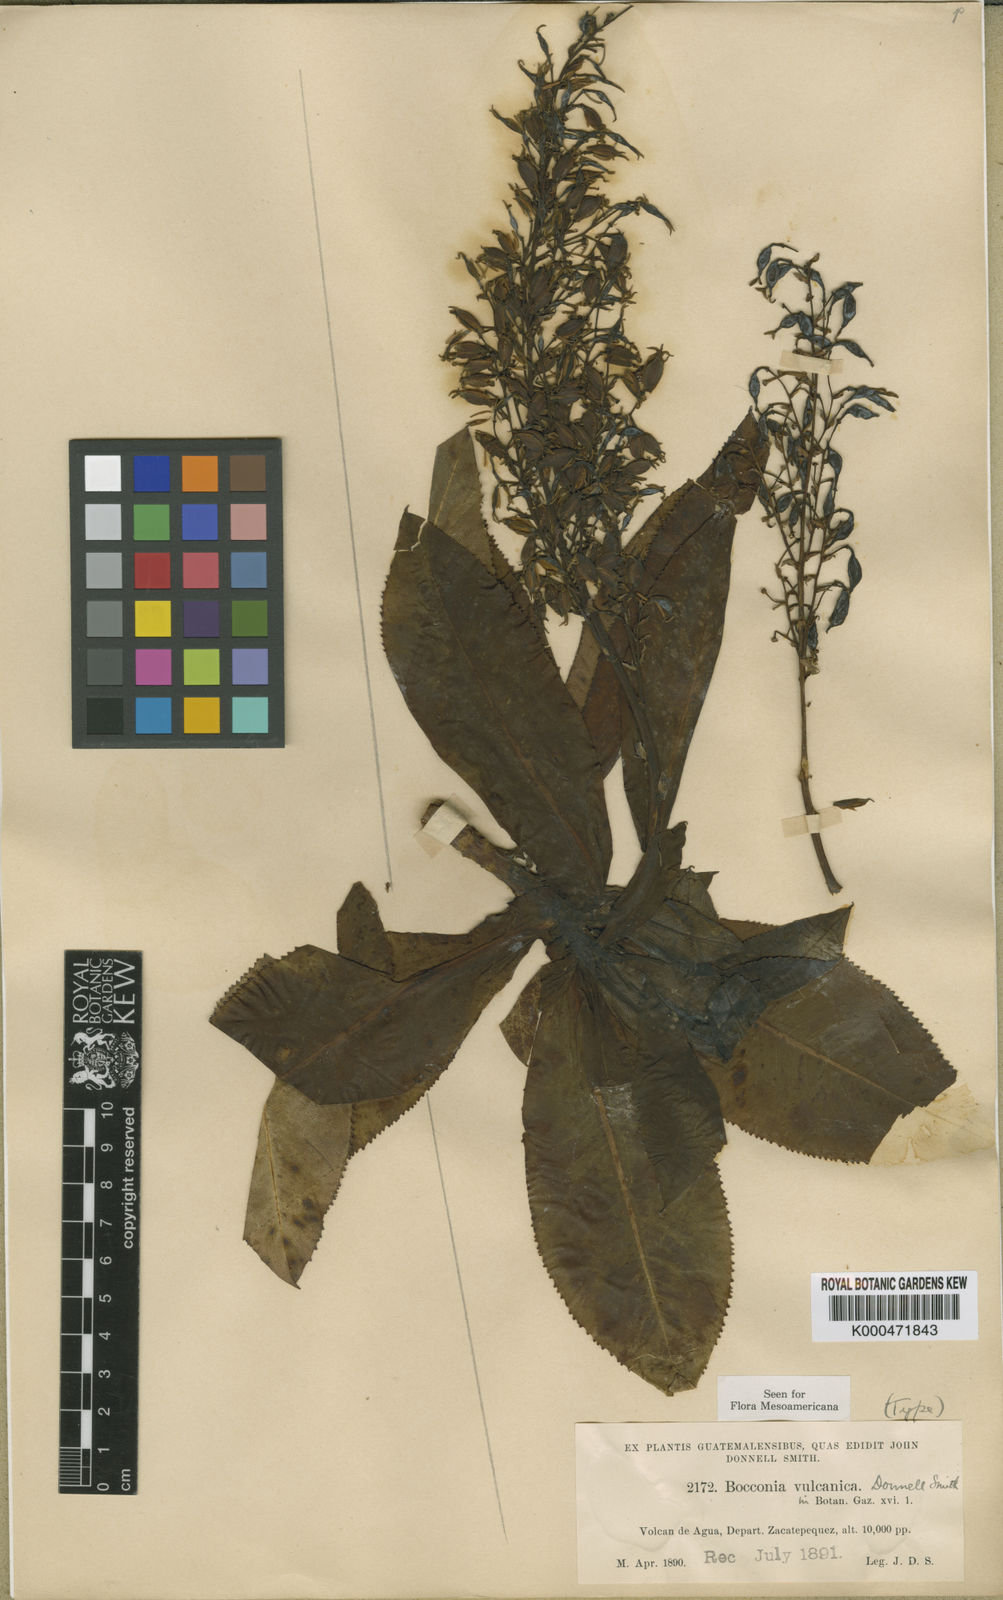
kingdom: Plantae
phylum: Tracheophyta
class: Magnoliopsida
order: Ranunculales
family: Papaveraceae
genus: Bocconia
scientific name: Bocconia vulcanica
